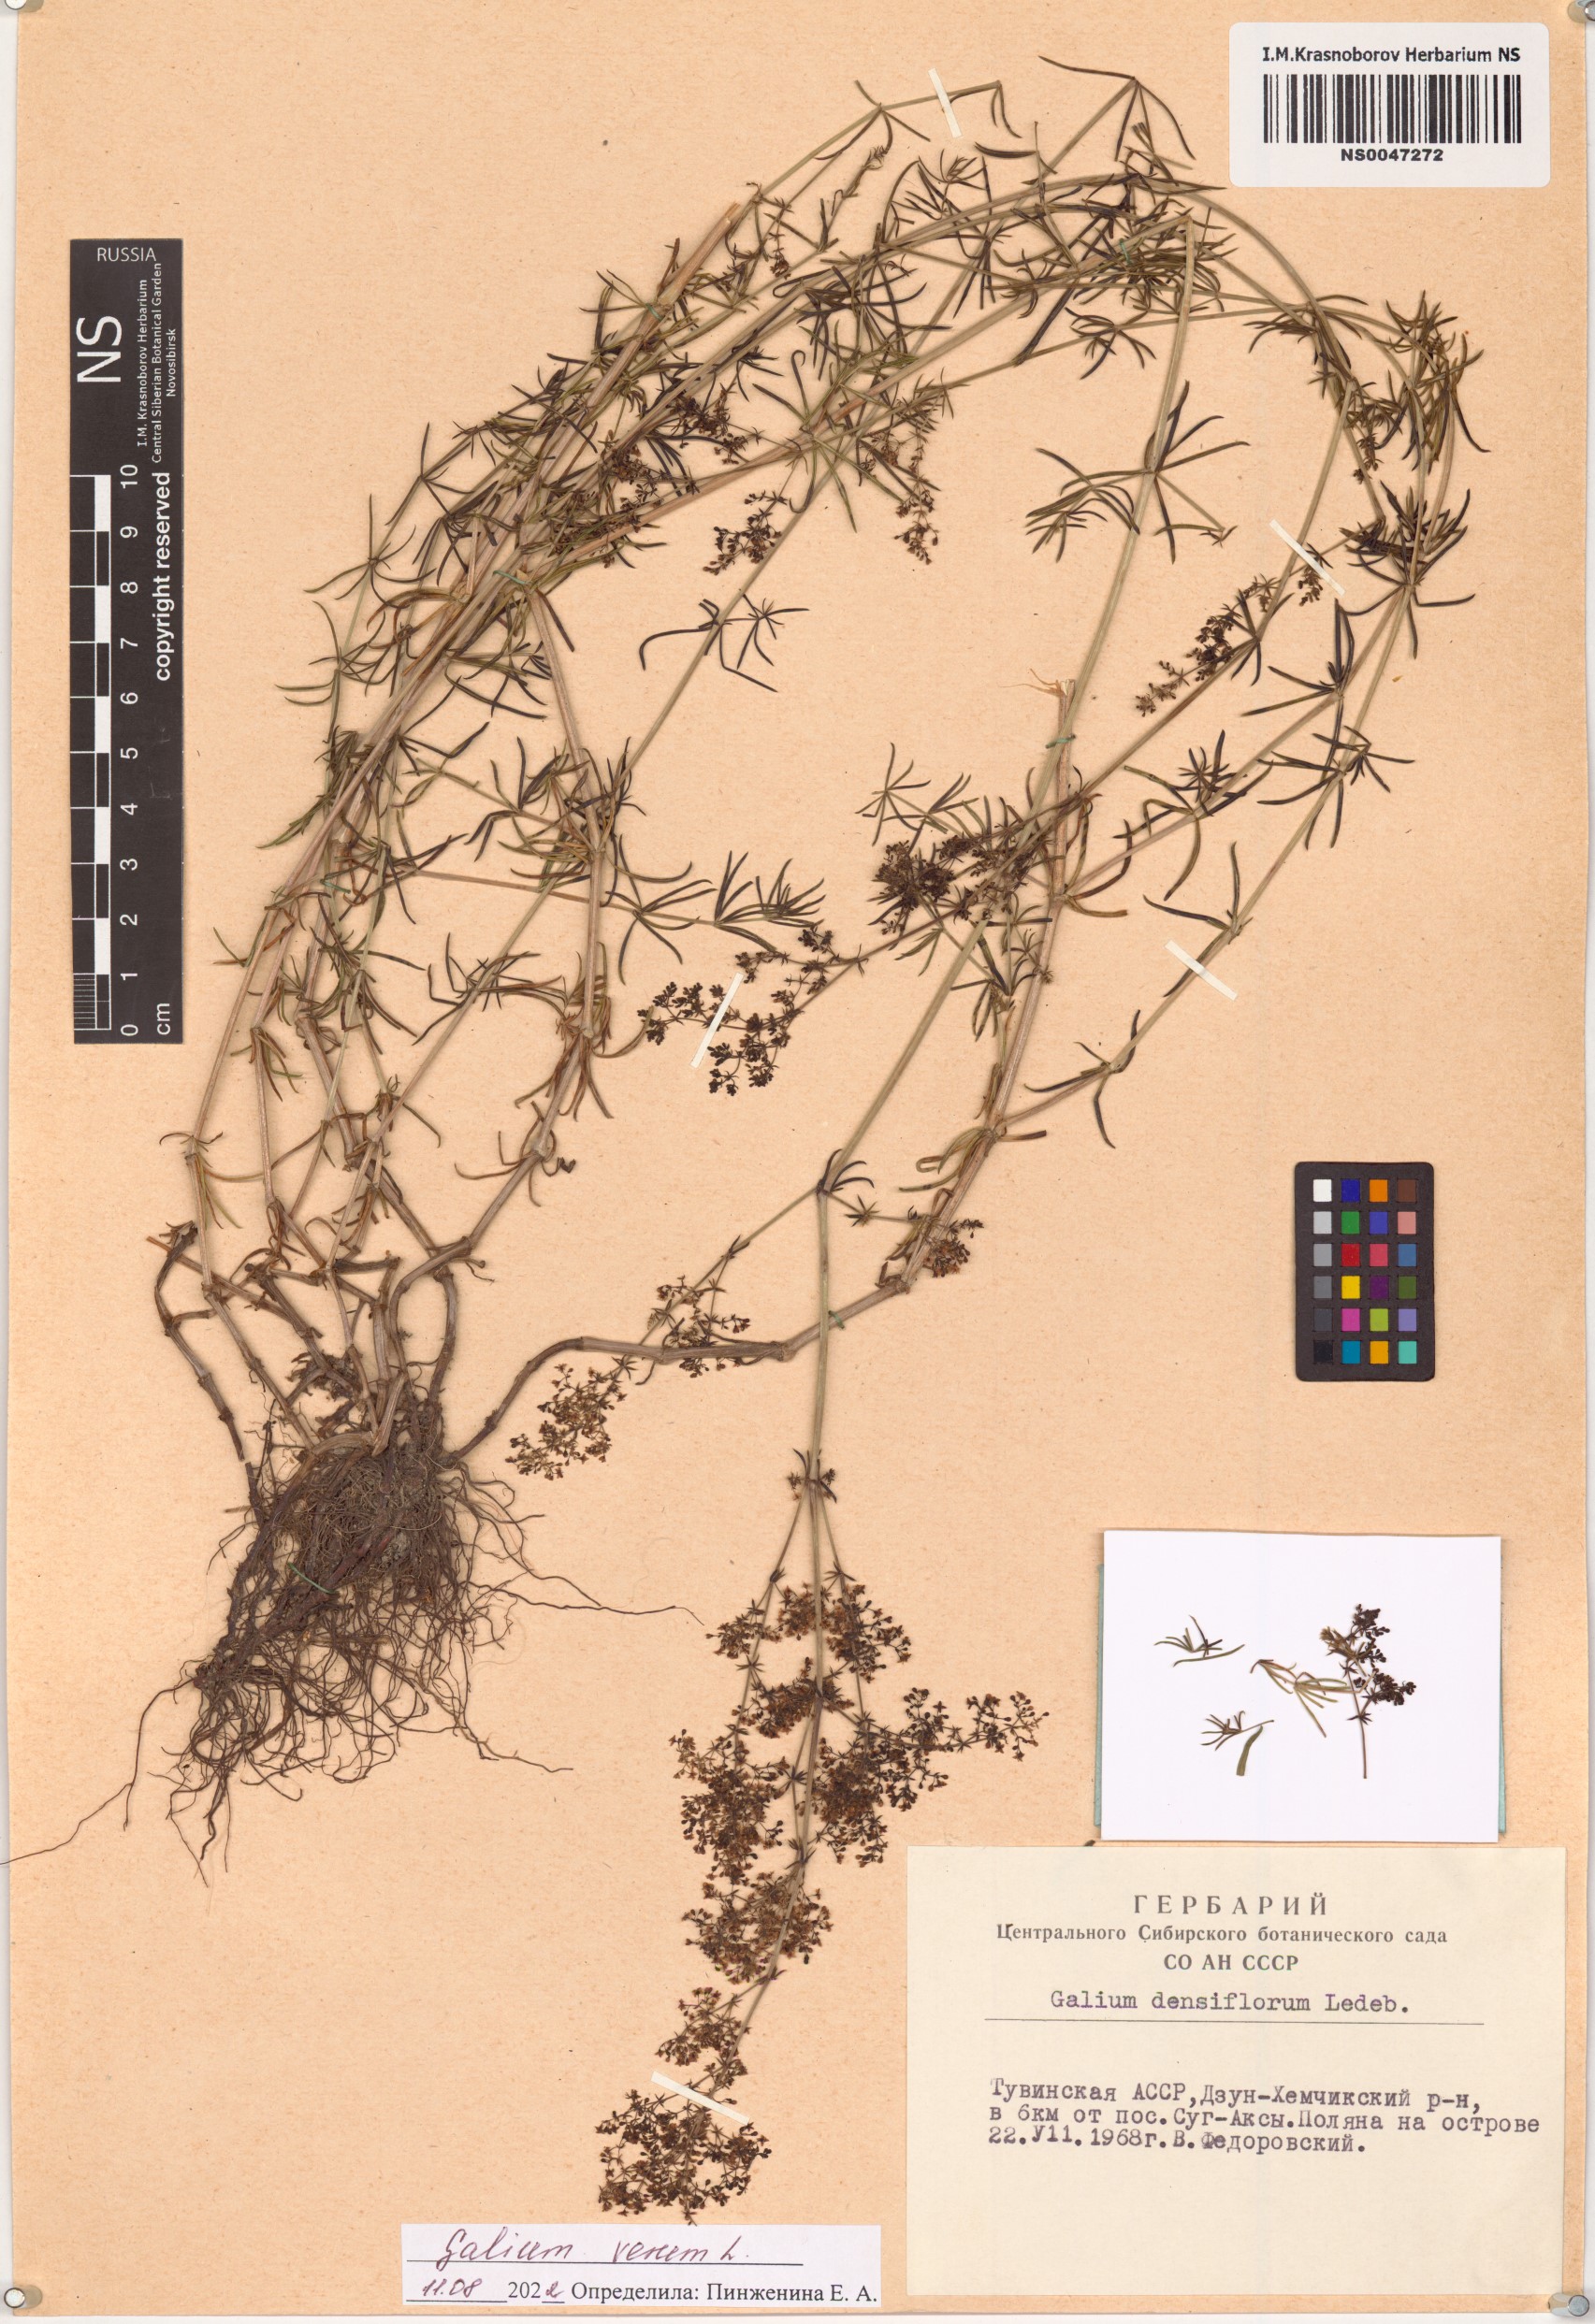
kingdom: Plantae
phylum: Tracheophyta
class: Magnoliopsida
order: Gentianales
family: Rubiaceae
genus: Galium
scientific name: Galium verum
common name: Lady's bedstraw
